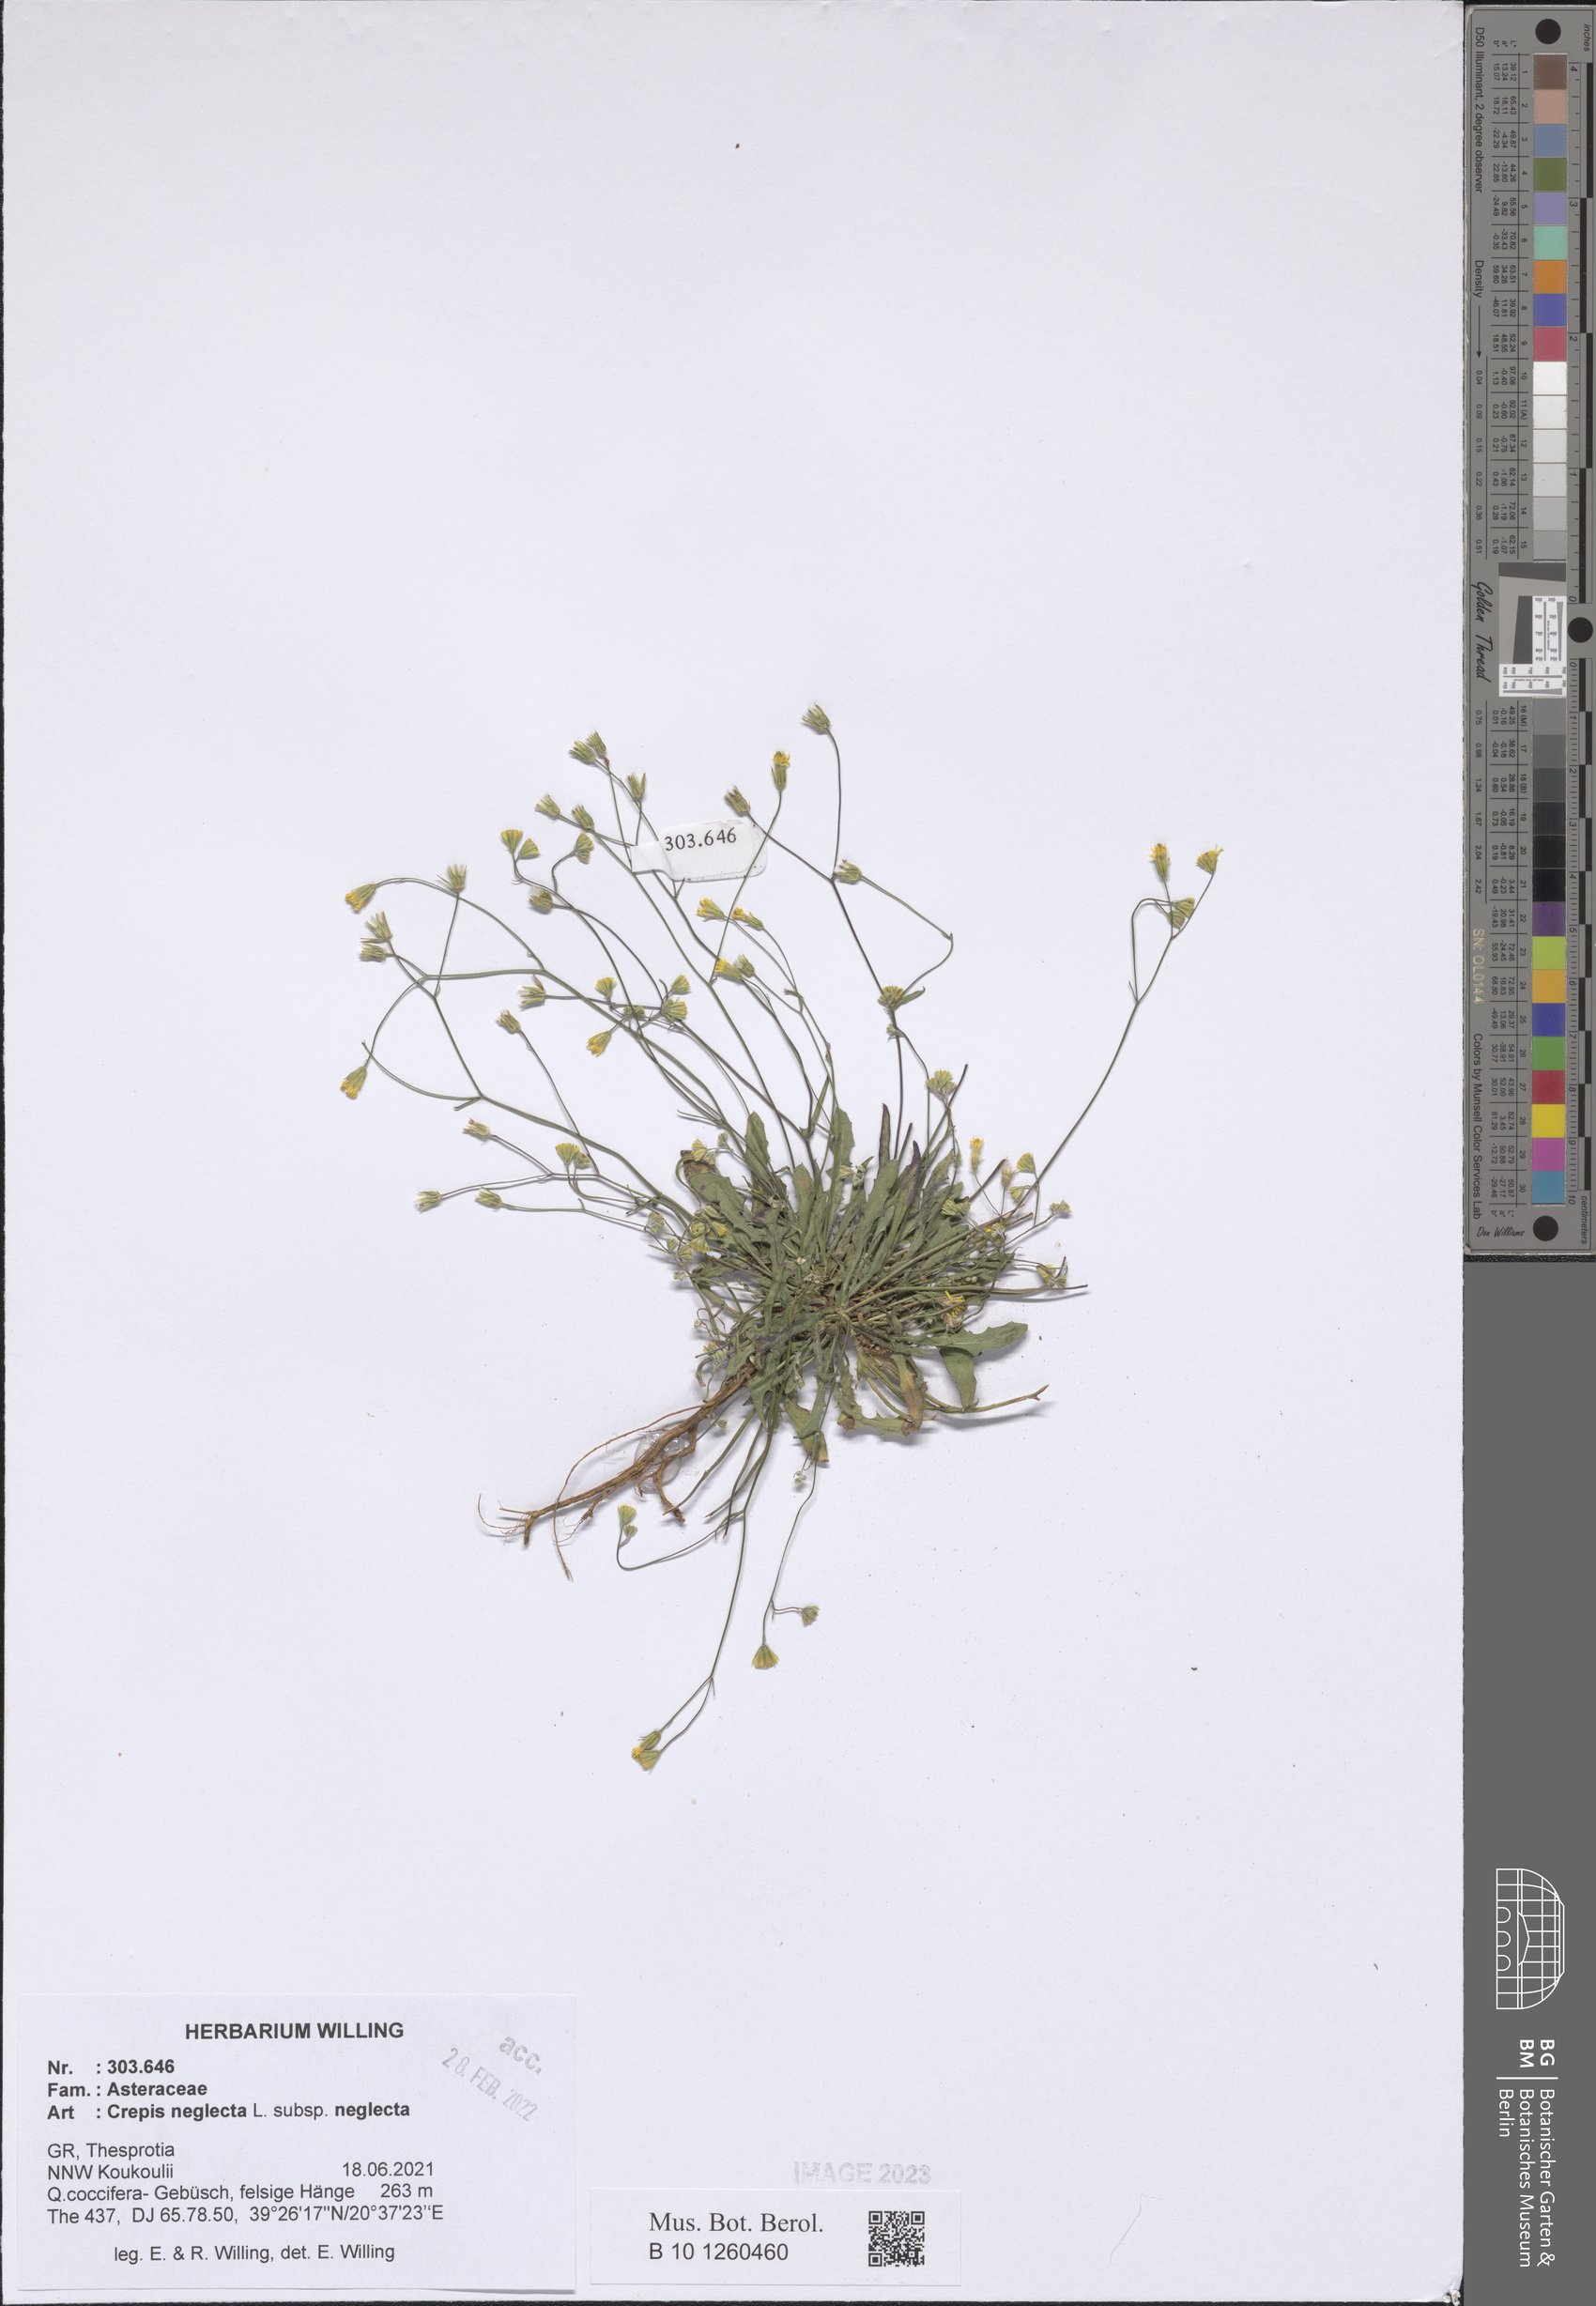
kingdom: Plantae
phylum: Tracheophyta
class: Magnoliopsida
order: Asterales
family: Asteraceae
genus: Crepis
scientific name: Crepis neglecta
